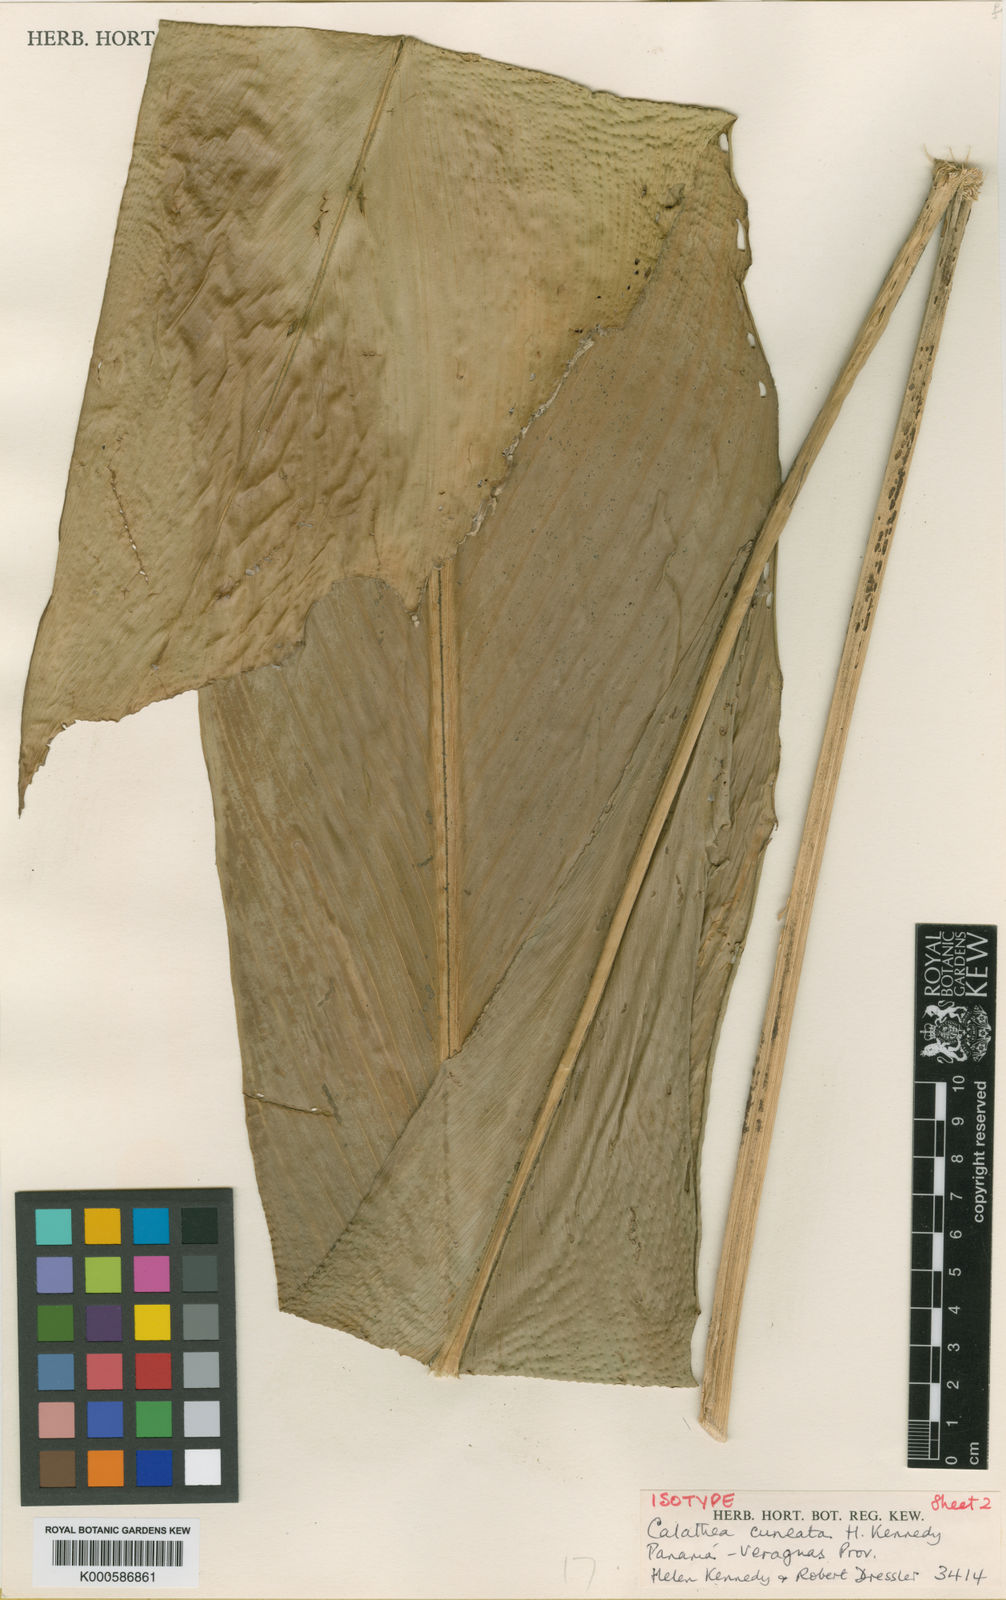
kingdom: Plantae
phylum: Tracheophyta
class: Liliopsida
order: Zingiberales
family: Marantaceae
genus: Goeppertia
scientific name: Goeppertia cuneata
